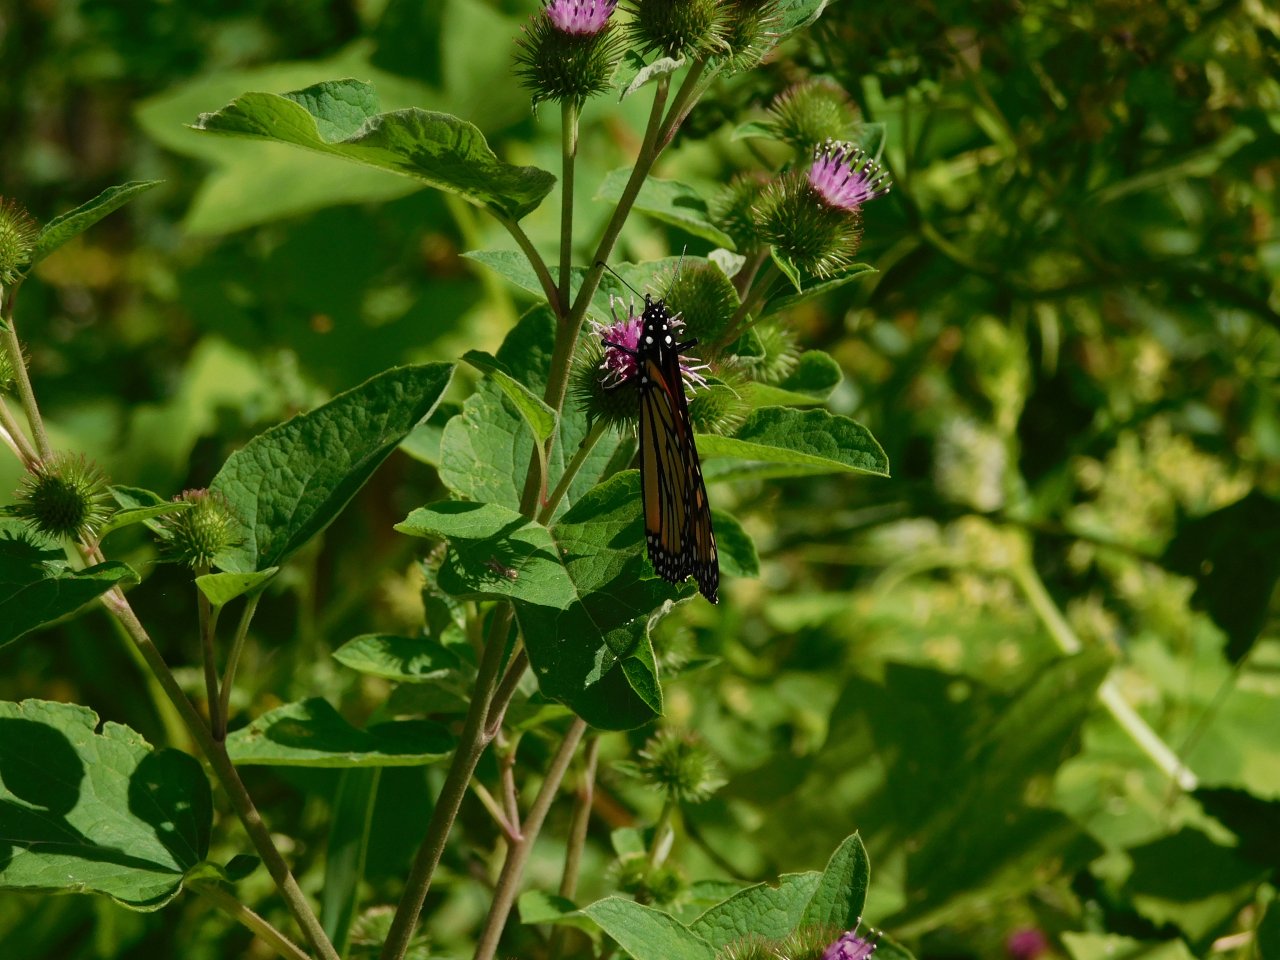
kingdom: Animalia
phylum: Arthropoda
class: Insecta
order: Lepidoptera
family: Nymphalidae
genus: Danaus
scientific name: Danaus plexippus
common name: Monarch
